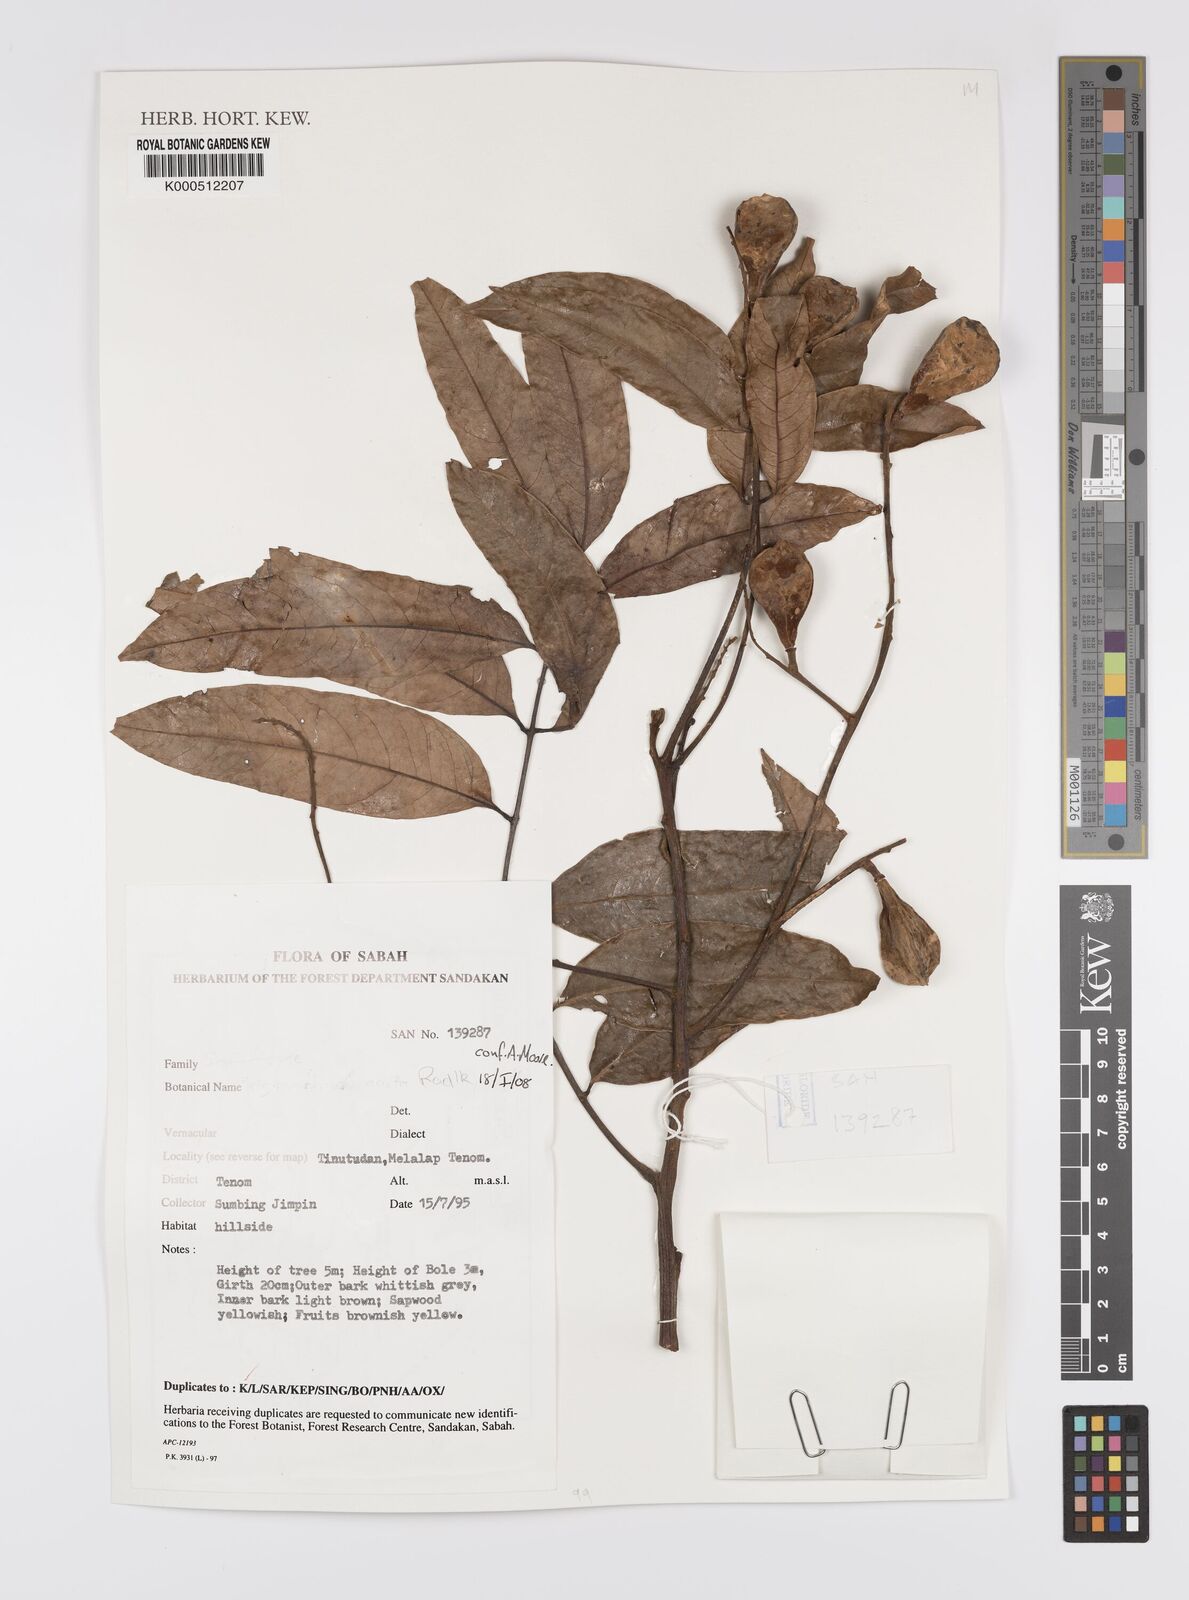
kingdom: Plantae
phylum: Tracheophyta
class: Magnoliopsida
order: Sapindales
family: Sapindaceae
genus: Trigonachras
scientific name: Trigonachras
